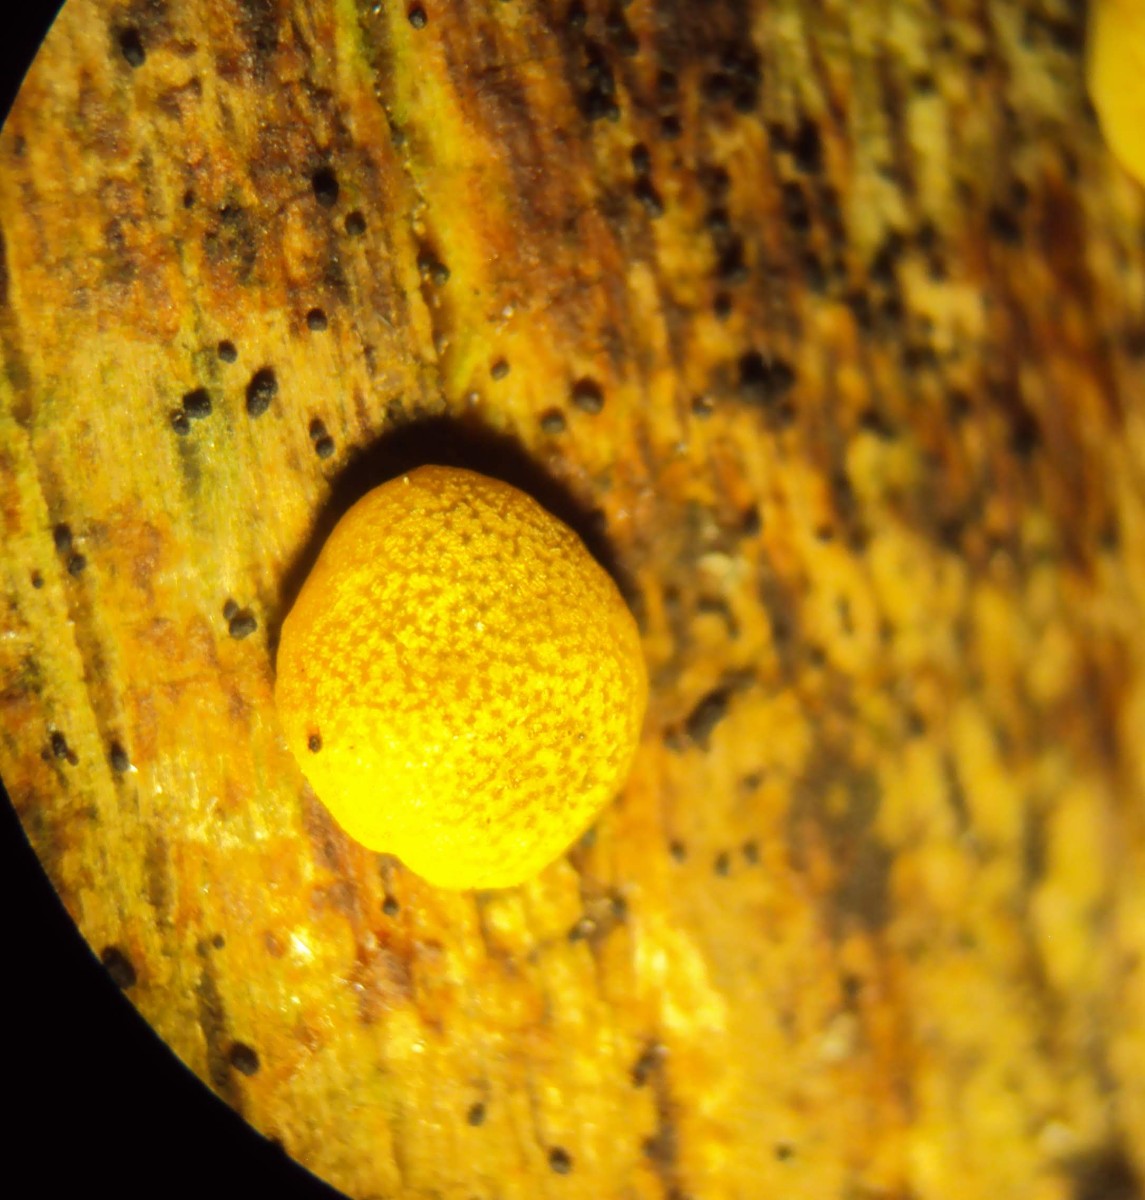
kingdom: Fungi
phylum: Ascomycota
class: Sordariomycetes
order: Hypocreales
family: Hypocreaceae
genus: Trichoderma
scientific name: Trichoderma aureoviride
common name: æggegul kødkerne
